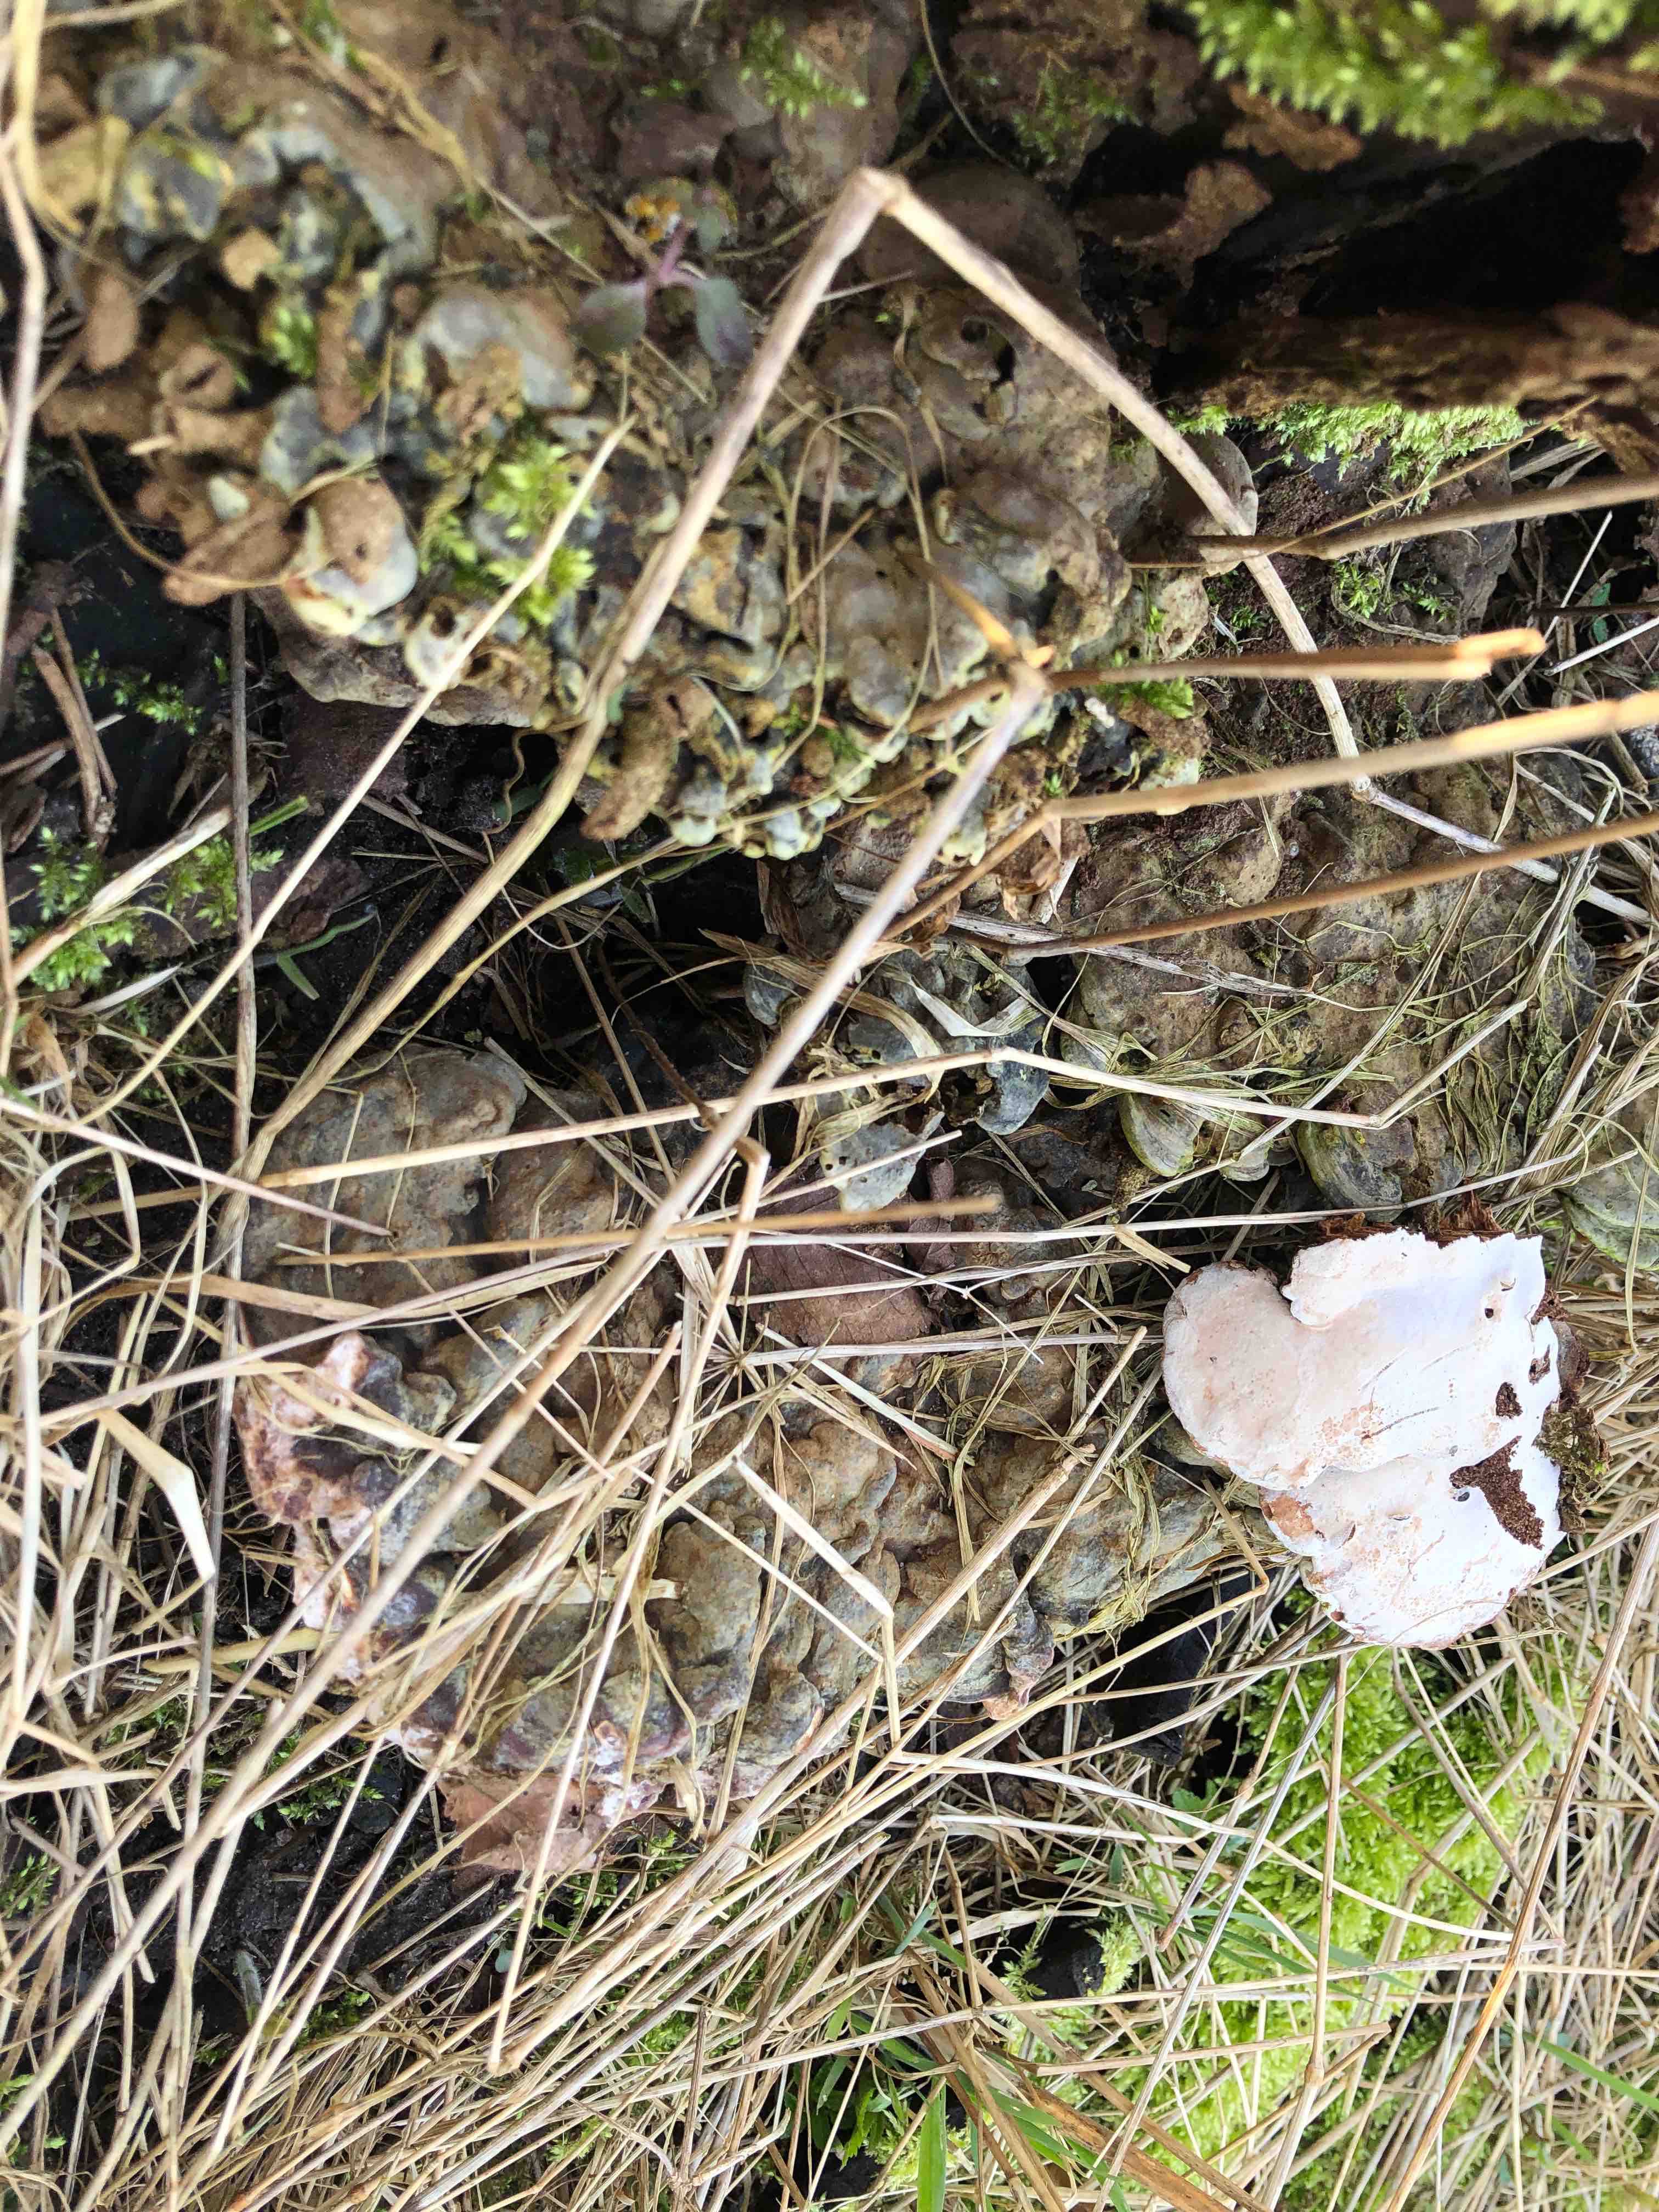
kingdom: Fungi
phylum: Basidiomycota
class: Agaricomycetes
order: Polyporales
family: Polyporaceae
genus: Ganoderma
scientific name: Ganoderma applanatum
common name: flad lakporesvamp
